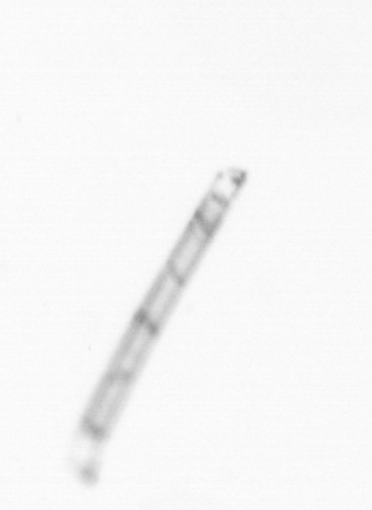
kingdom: Chromista
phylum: Ochrophyta
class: Bacillariophyceae
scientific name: Bacillariophyceae
